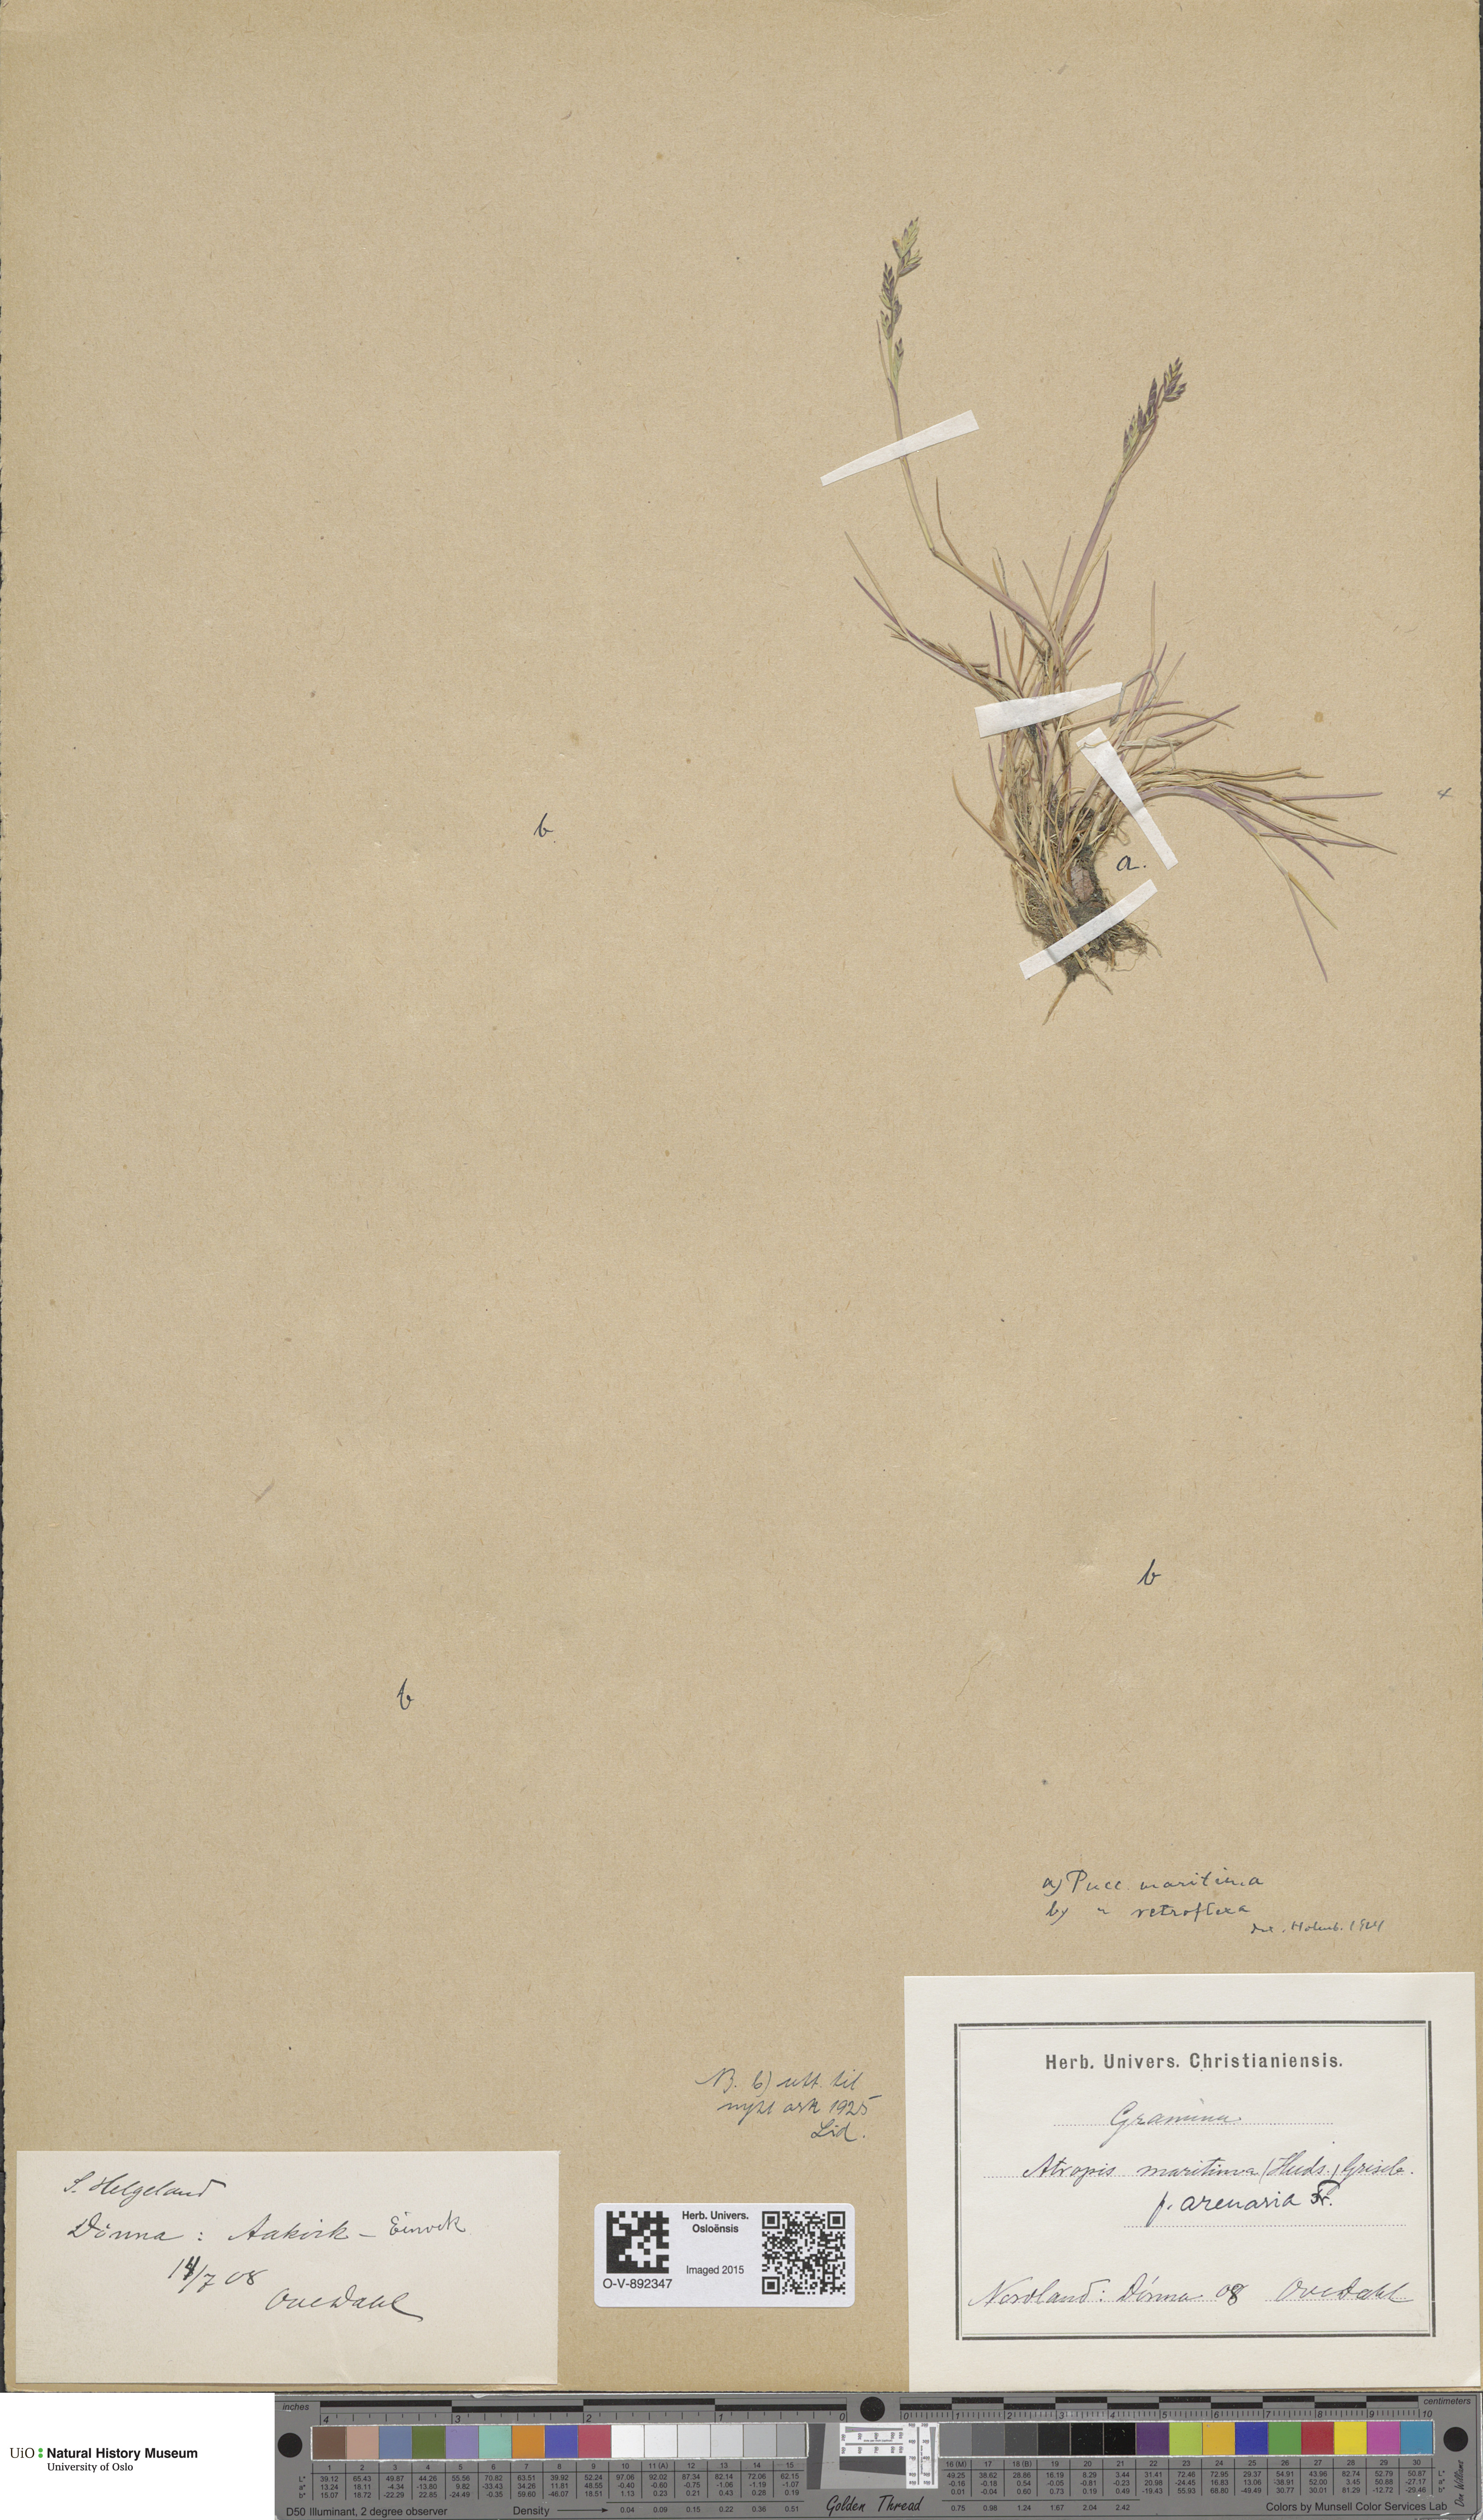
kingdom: Plantae
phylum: Tracheophyta
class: Liliopsida
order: Poales
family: Poaceae
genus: Puccinellia
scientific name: Puccinellia maritima
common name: Common saltmarsh grass
